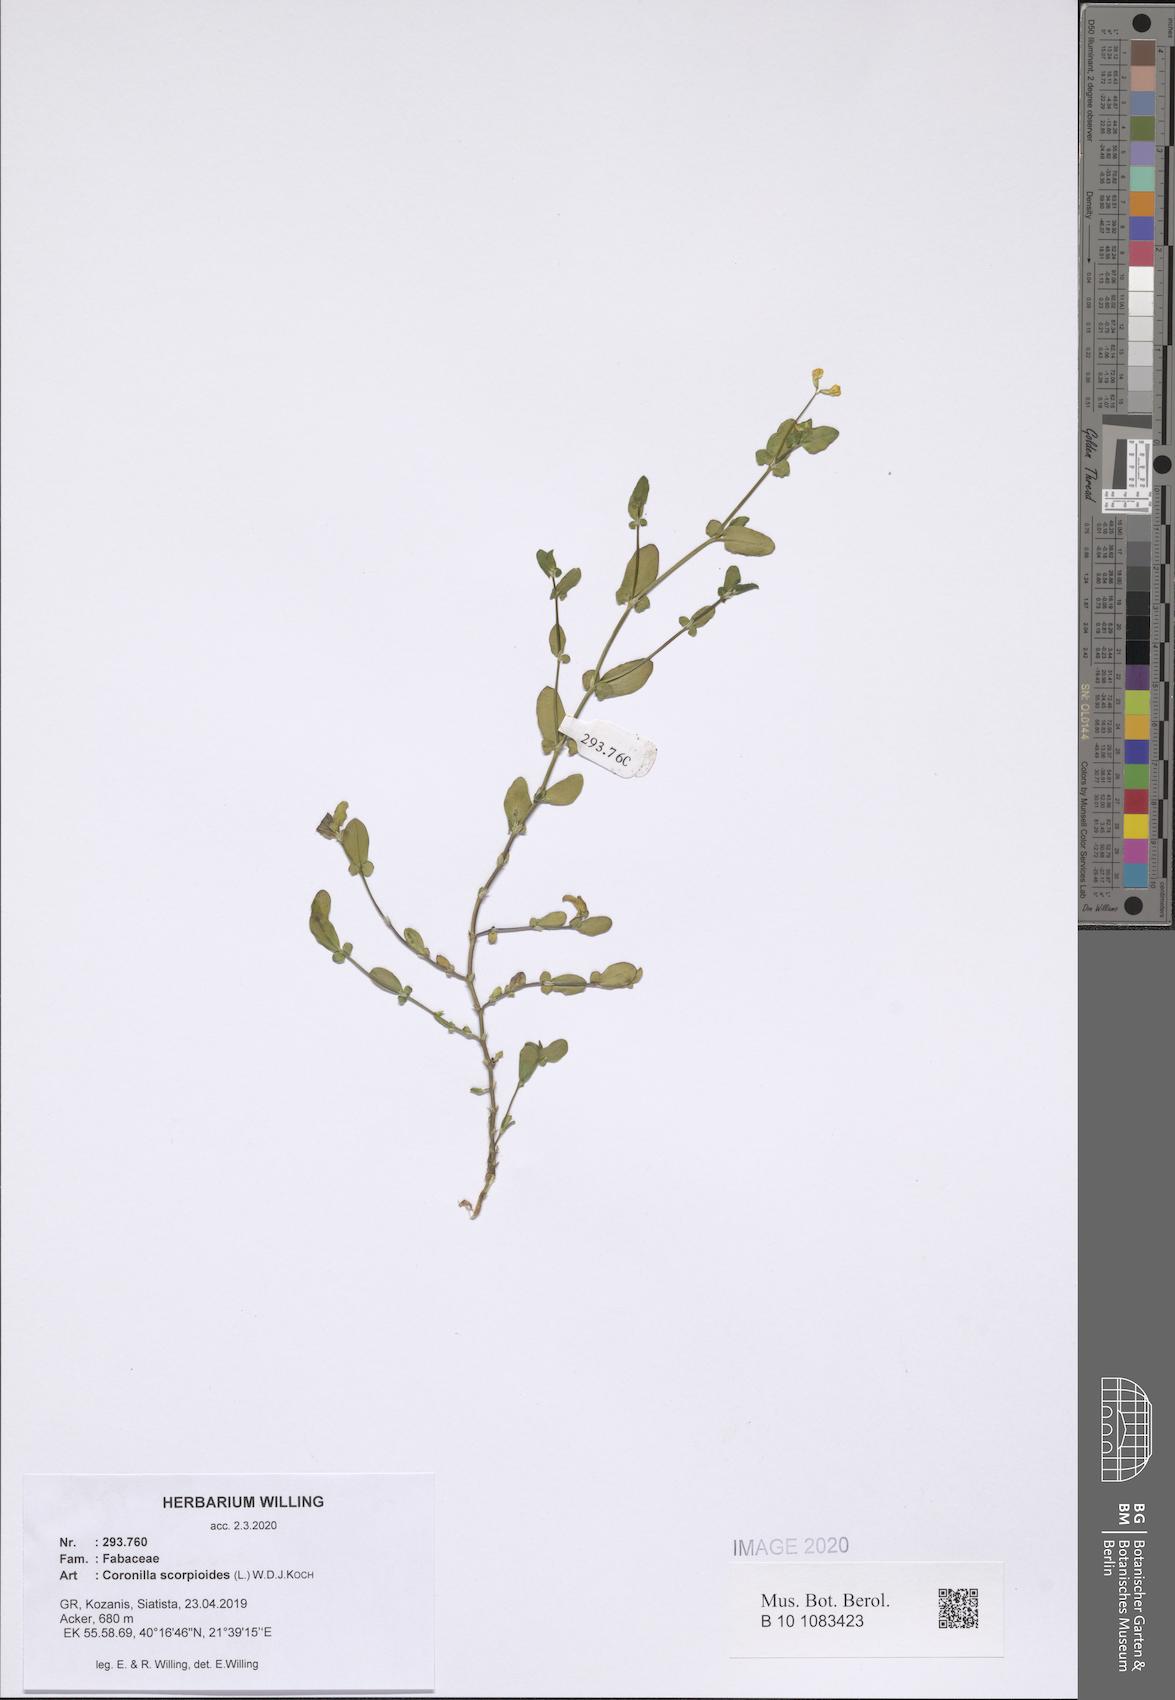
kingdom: Plantae
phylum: Tracheophyta
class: Magnoliopsida
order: Fabales
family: Fabaceae
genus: Coronilla
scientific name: Coronilla scorpioides
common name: Annual scorpion-vetch
